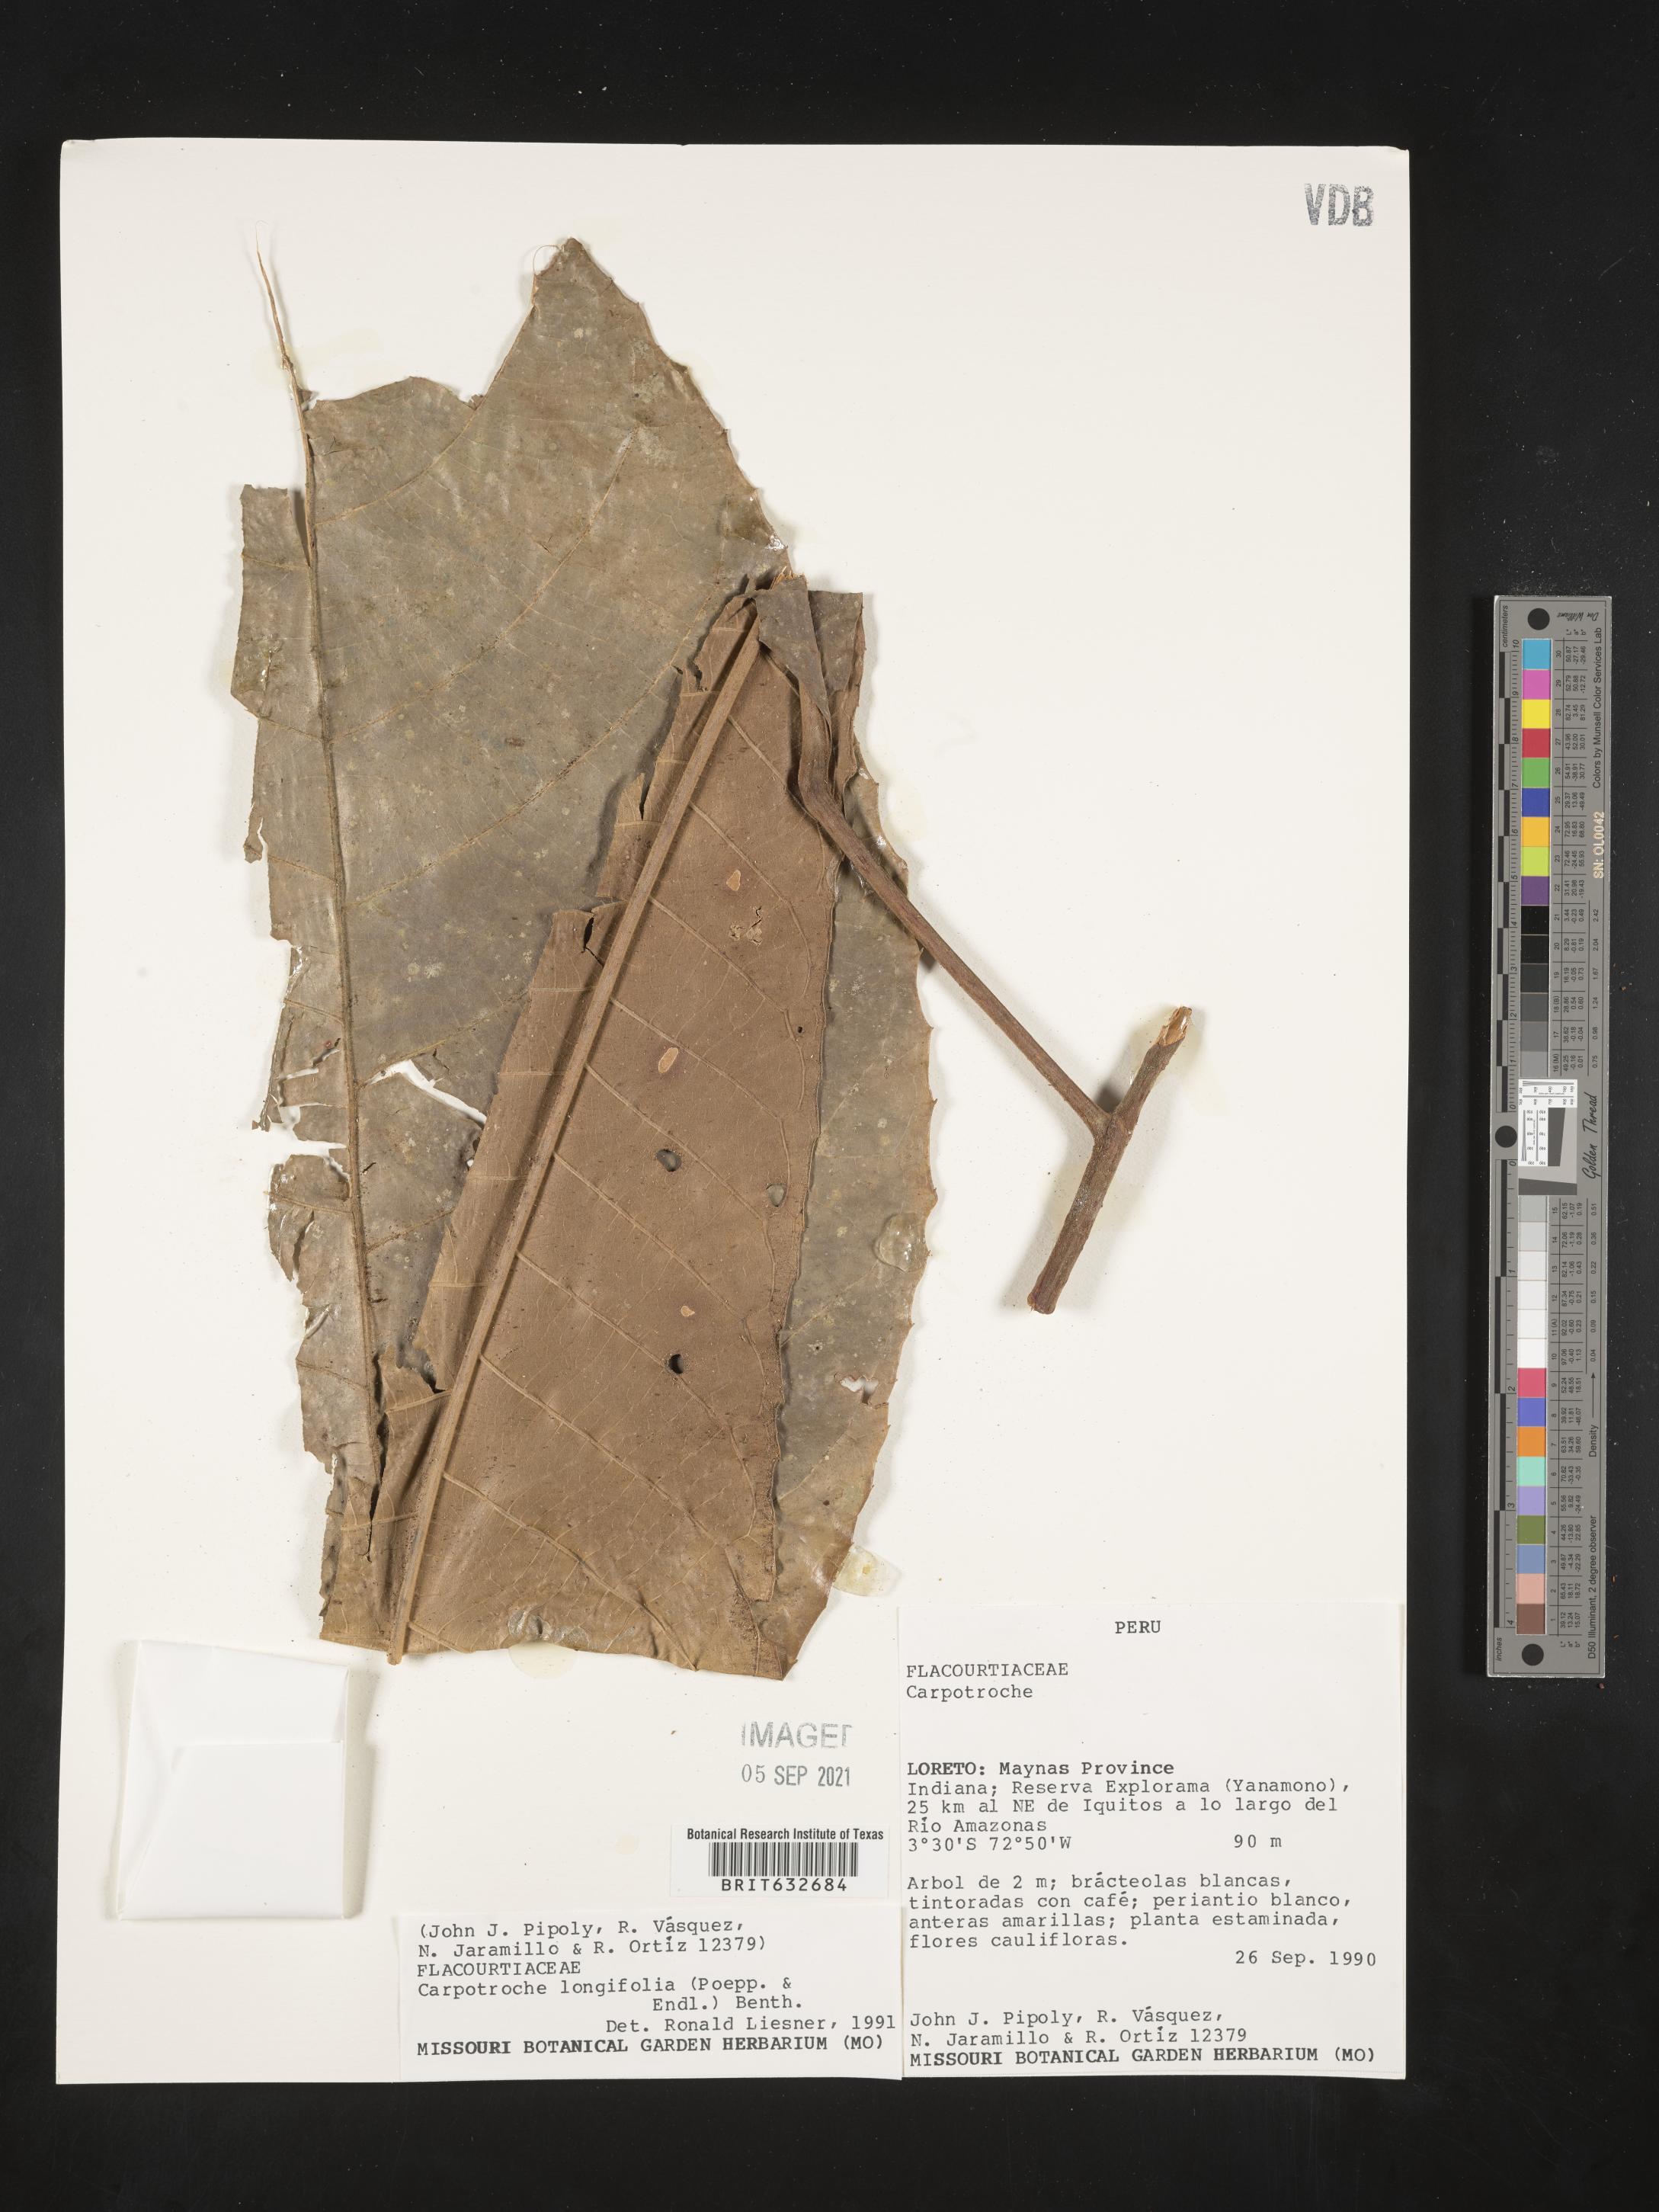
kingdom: Plantae
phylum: Tracheophyta
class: Magnoliopsida
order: Malpighiales
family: Achariaceae
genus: Carpotroche
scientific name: Carpotroche longifolia
